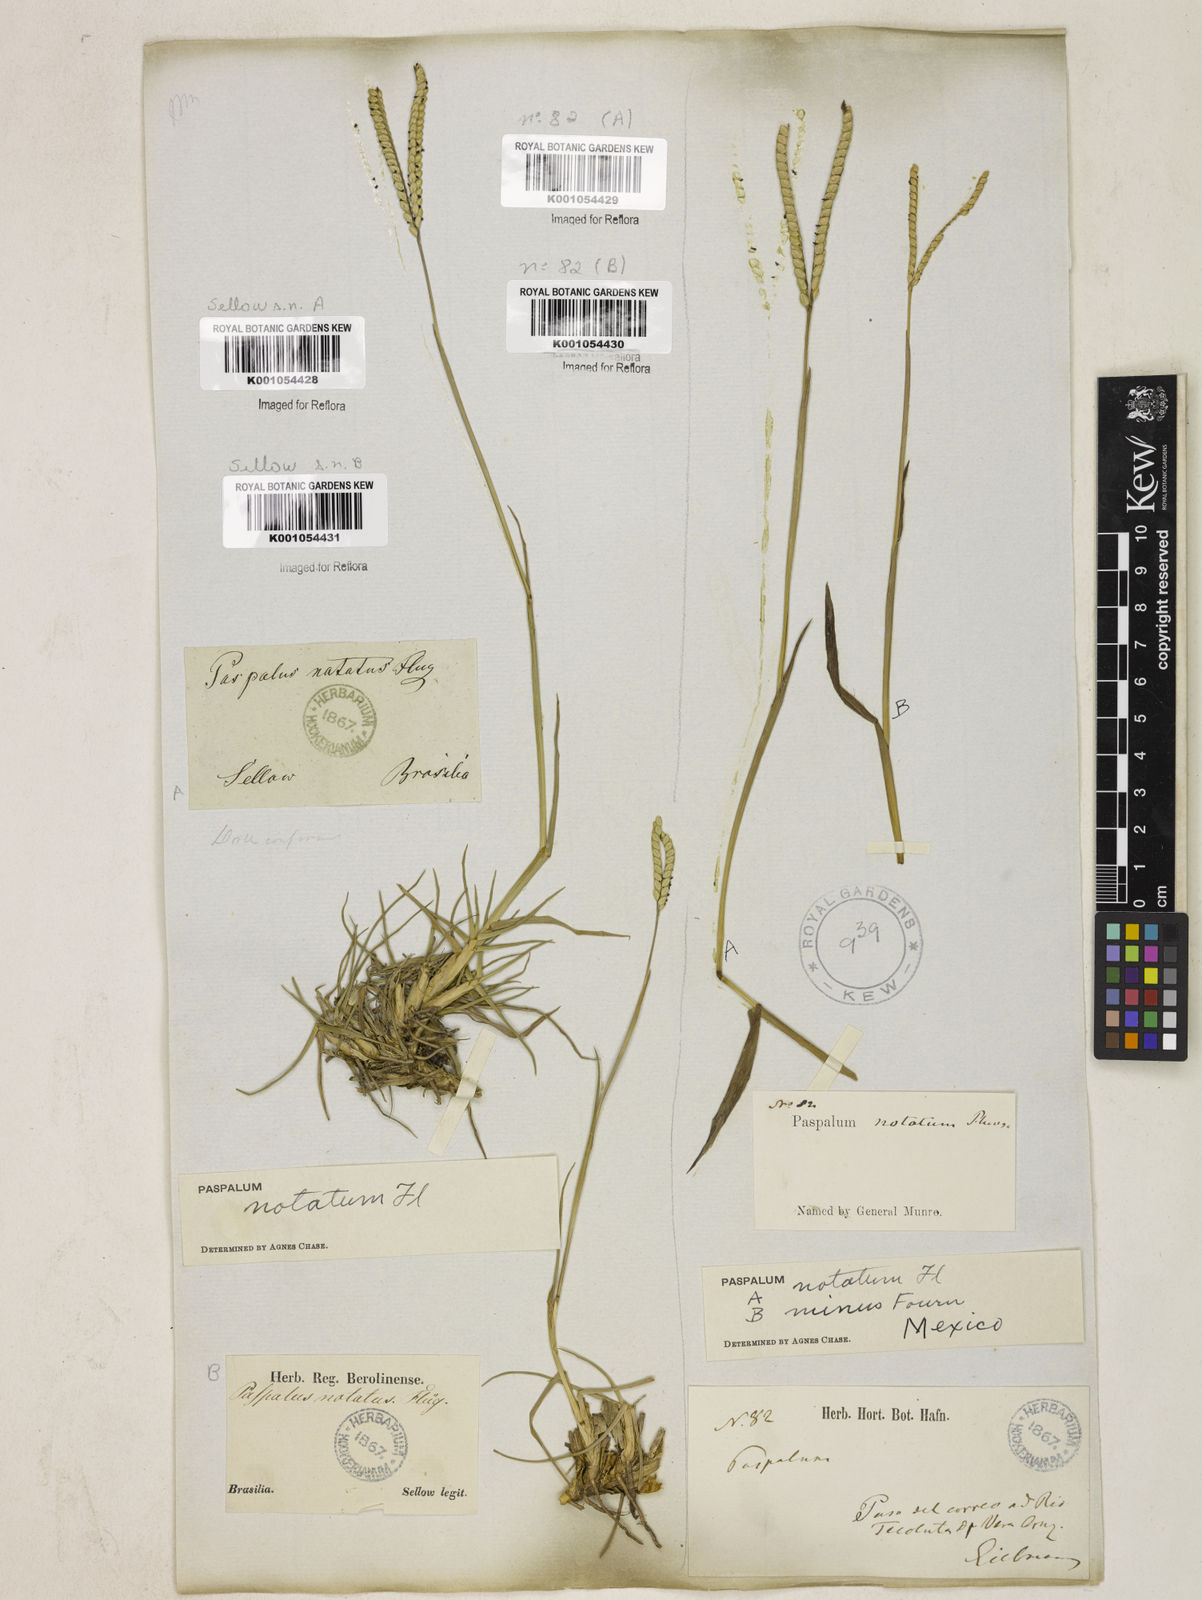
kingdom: Plantae
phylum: Tracheophyta
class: Liliopsida
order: Poales
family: Poaceae
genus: Paspalum
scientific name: Paspalum
